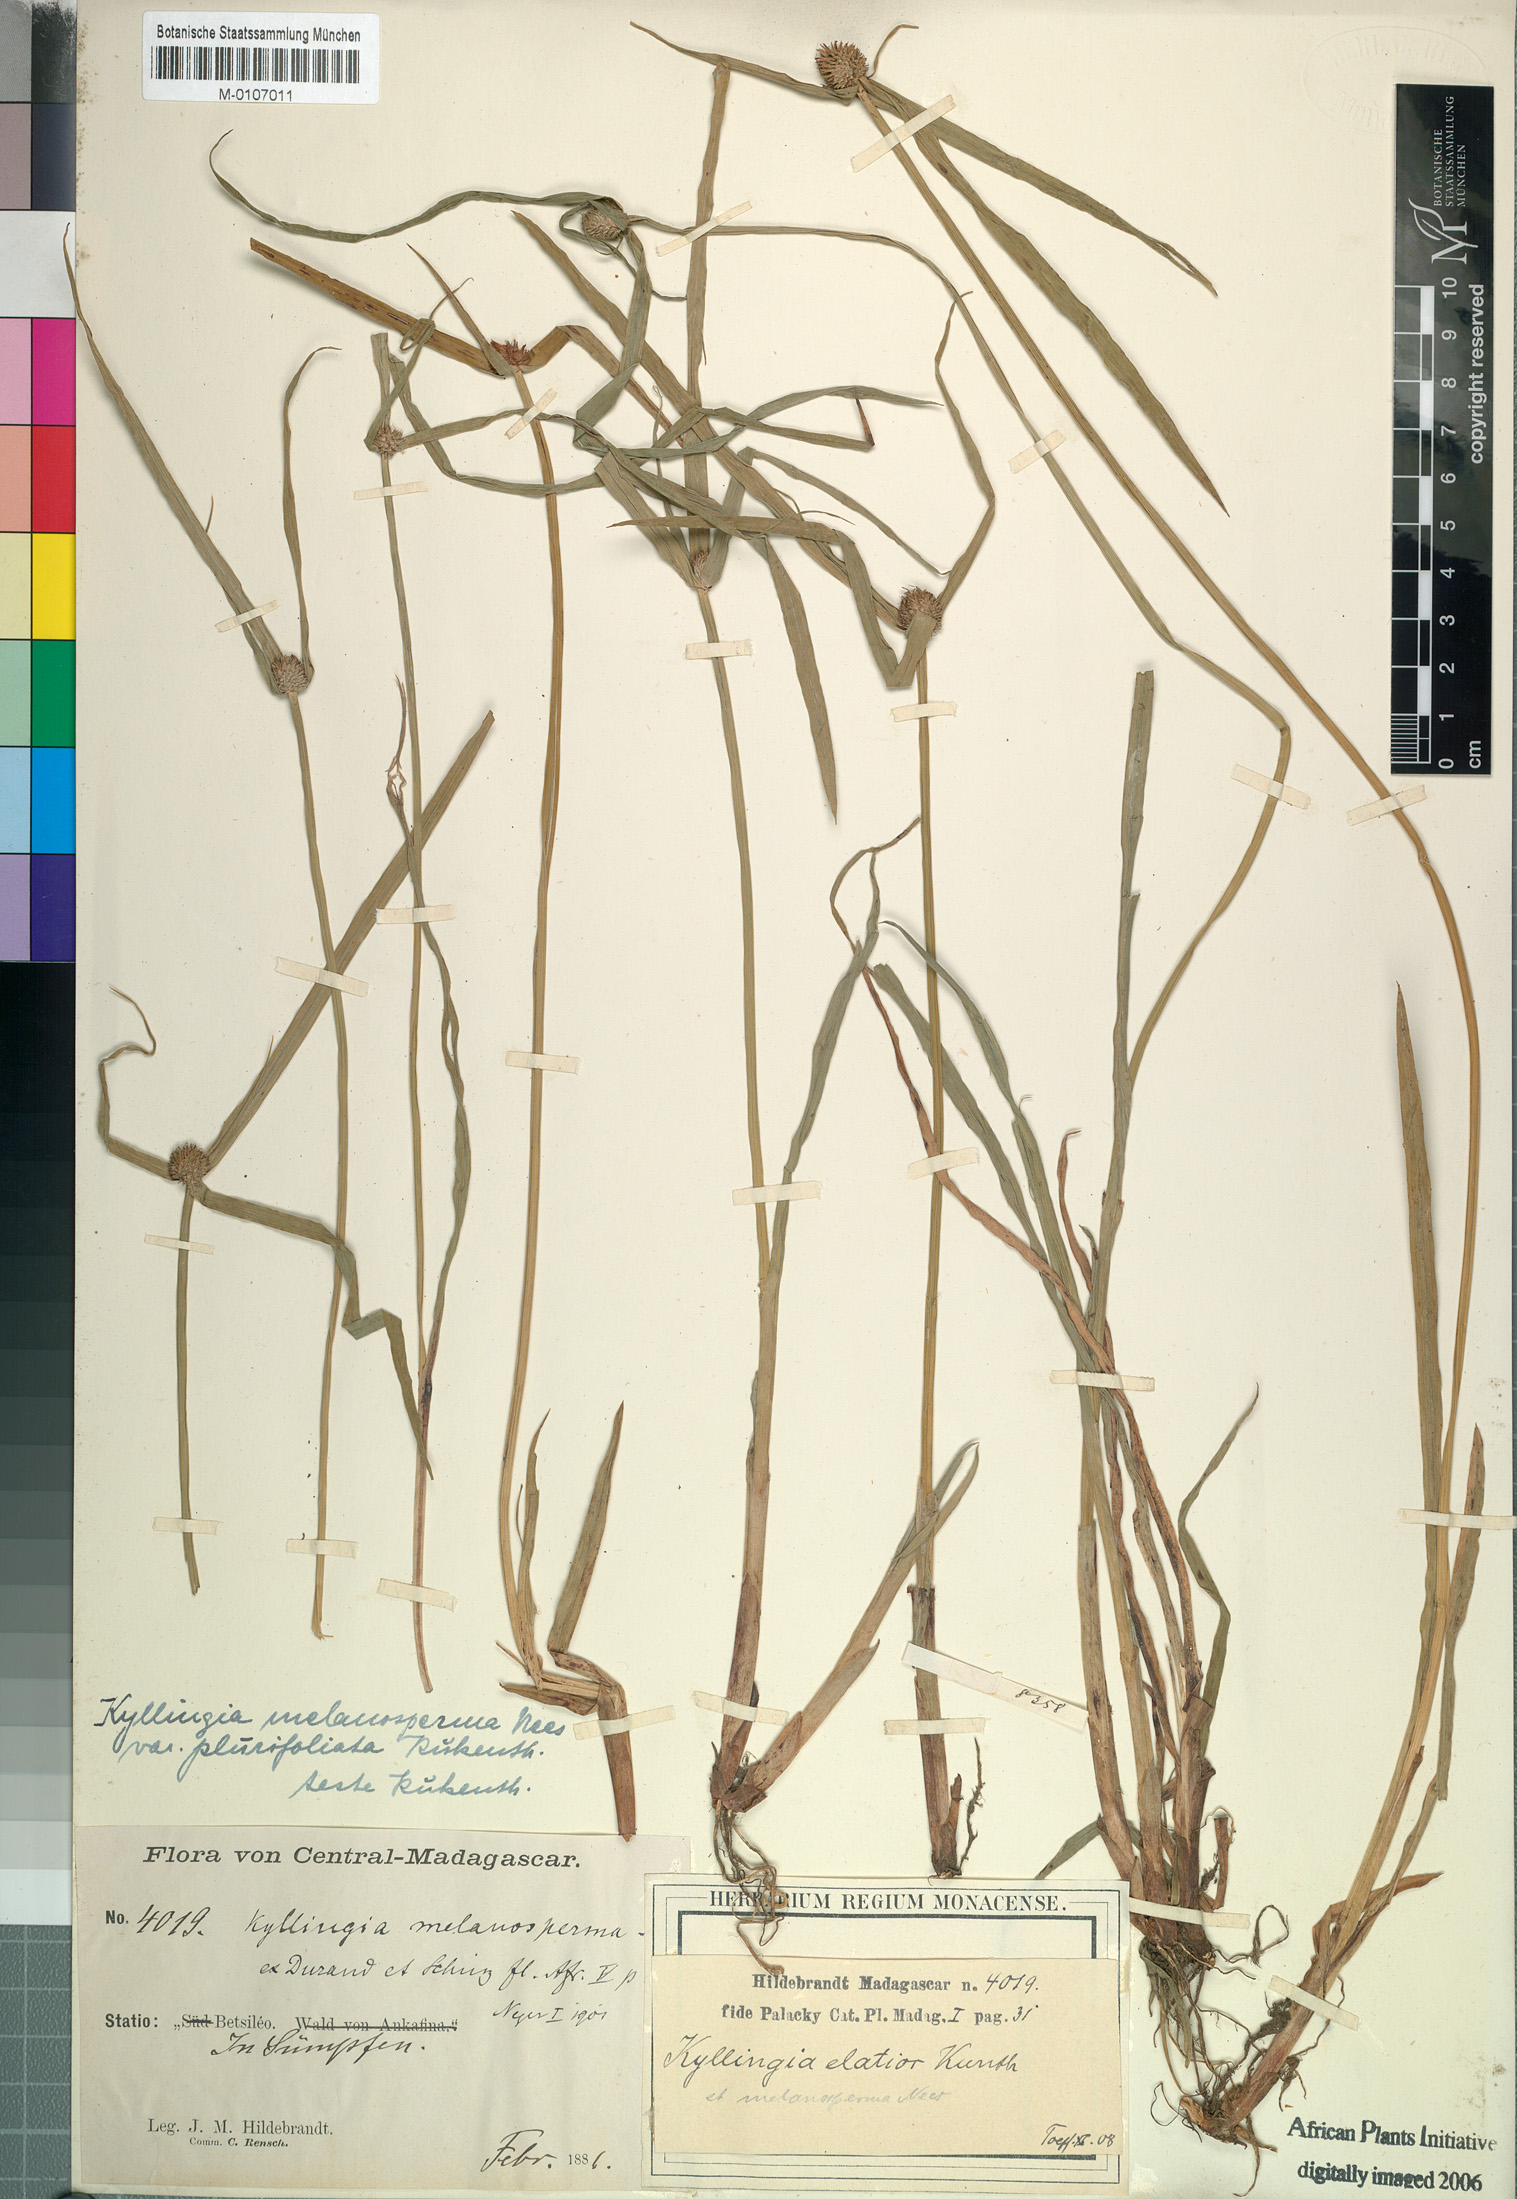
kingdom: Plantae
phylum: Tracheophyta
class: Liliopsida
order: Poales
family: Cyperaceae
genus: Cyperus
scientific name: Cyperus melanospermus
